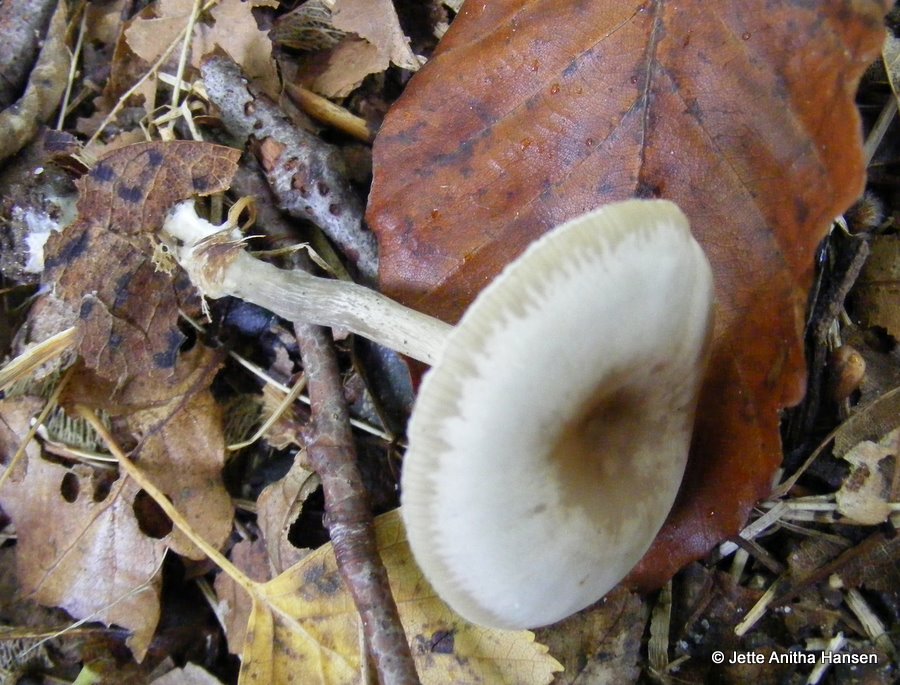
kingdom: Fungi
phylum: Basidiomycota
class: Agaricomycetes
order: Agaricales
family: Tricholomataceae
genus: Clitocybe
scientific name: Clitocybe metachroa
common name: grå tragthat
